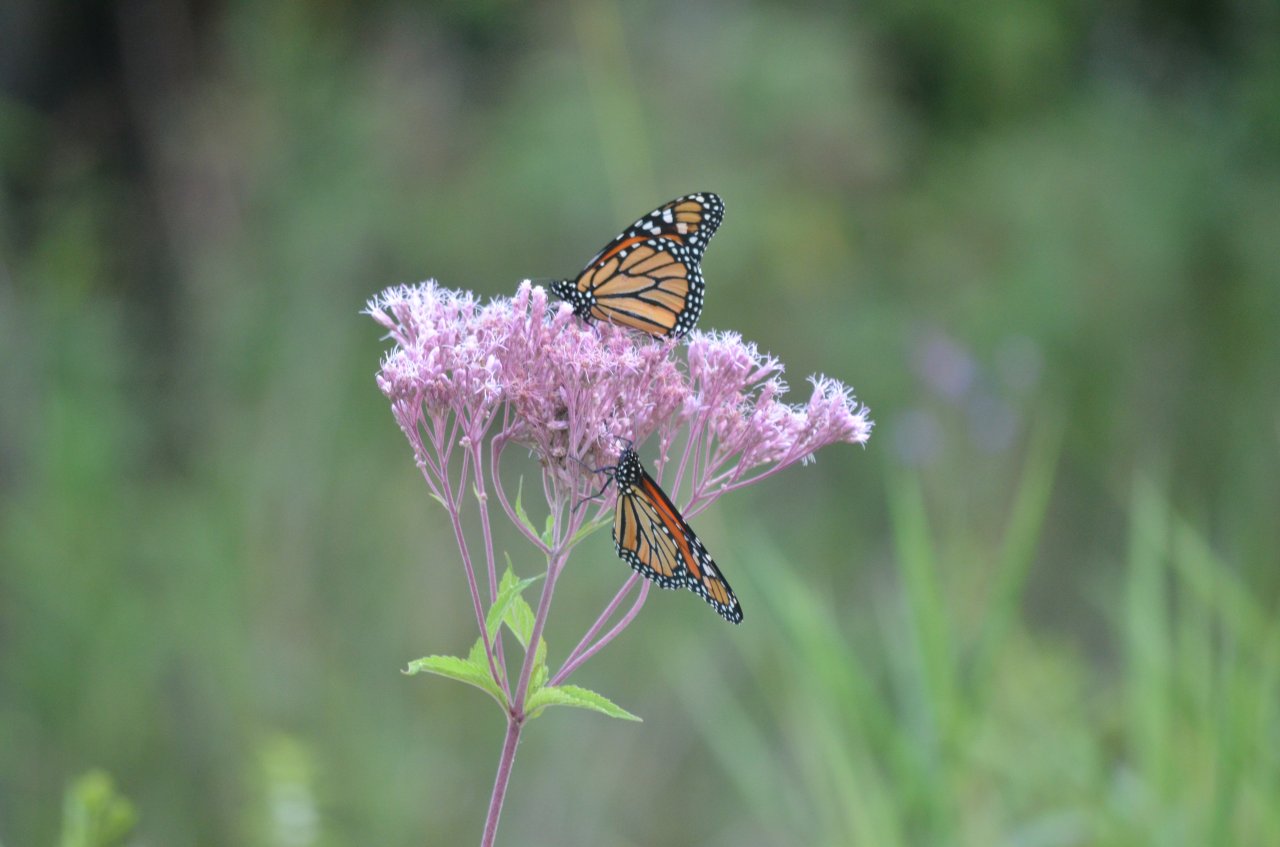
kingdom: Animalia
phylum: Arthropoda
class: Insecta
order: Lepidoptera
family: Nymphalidae
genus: Danaus
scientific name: Danaus plexippus
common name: Monarch
